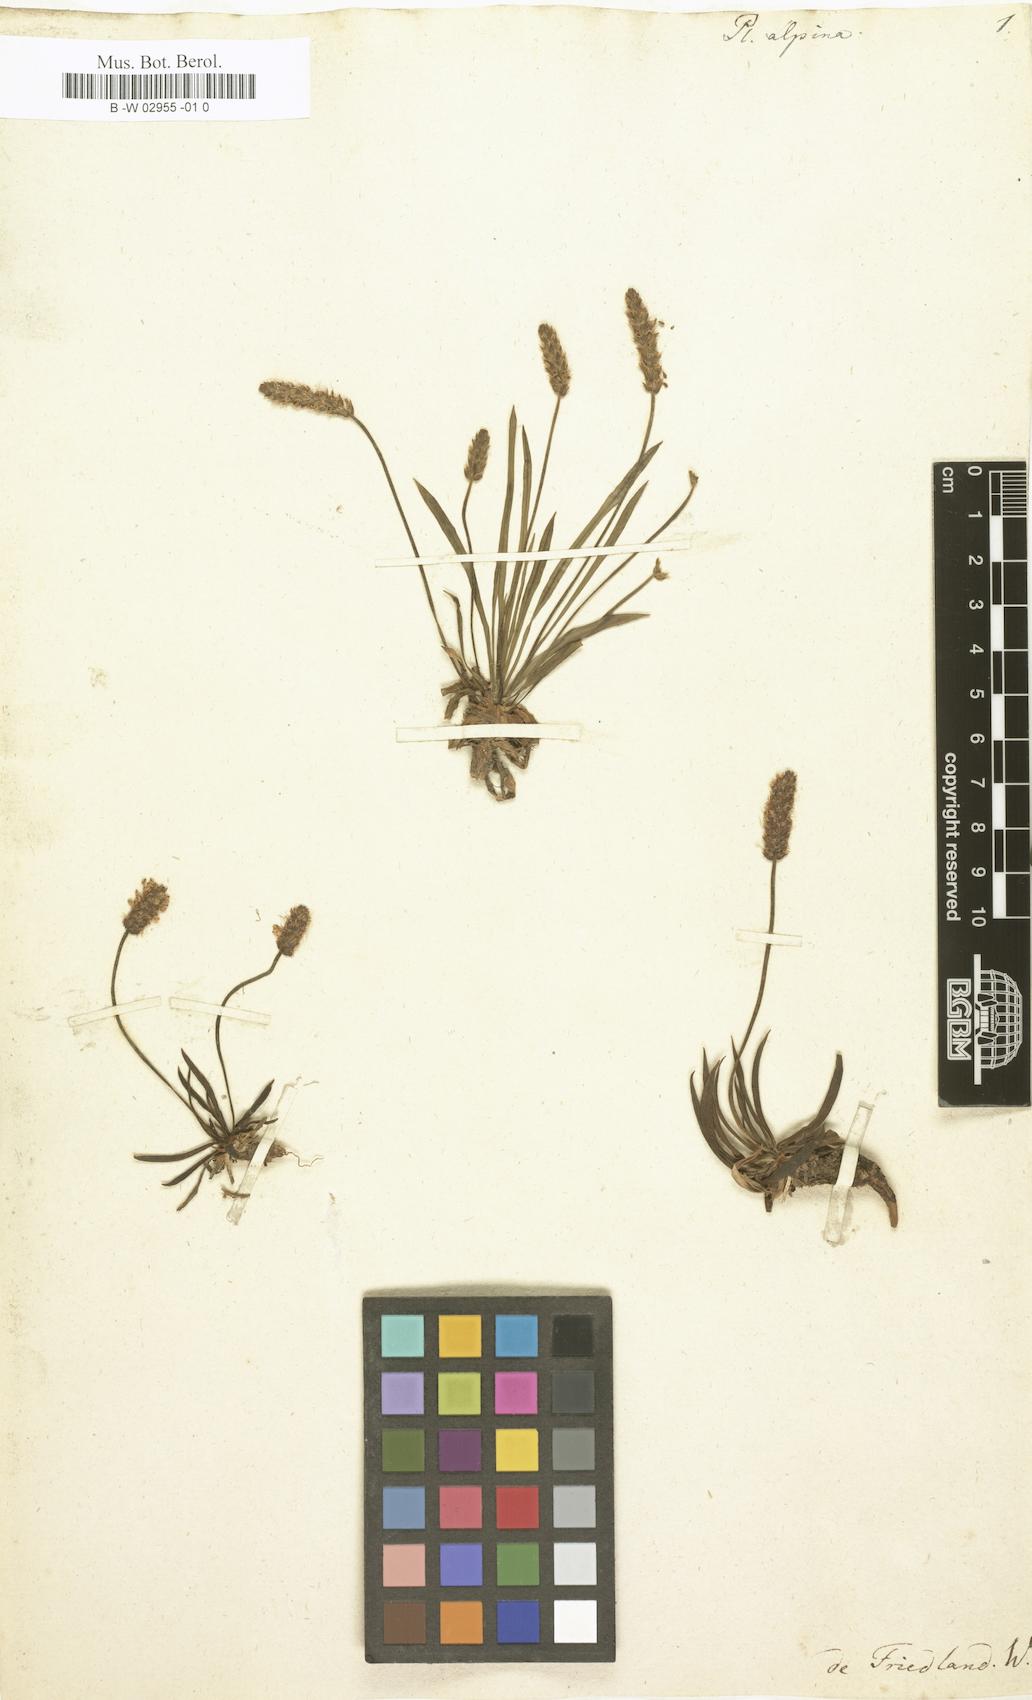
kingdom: Plantae
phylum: Tracheophyta
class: Magnoliopsida
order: Lamiales
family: Plantaginaceae
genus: Plantago
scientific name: Plantago alpina
